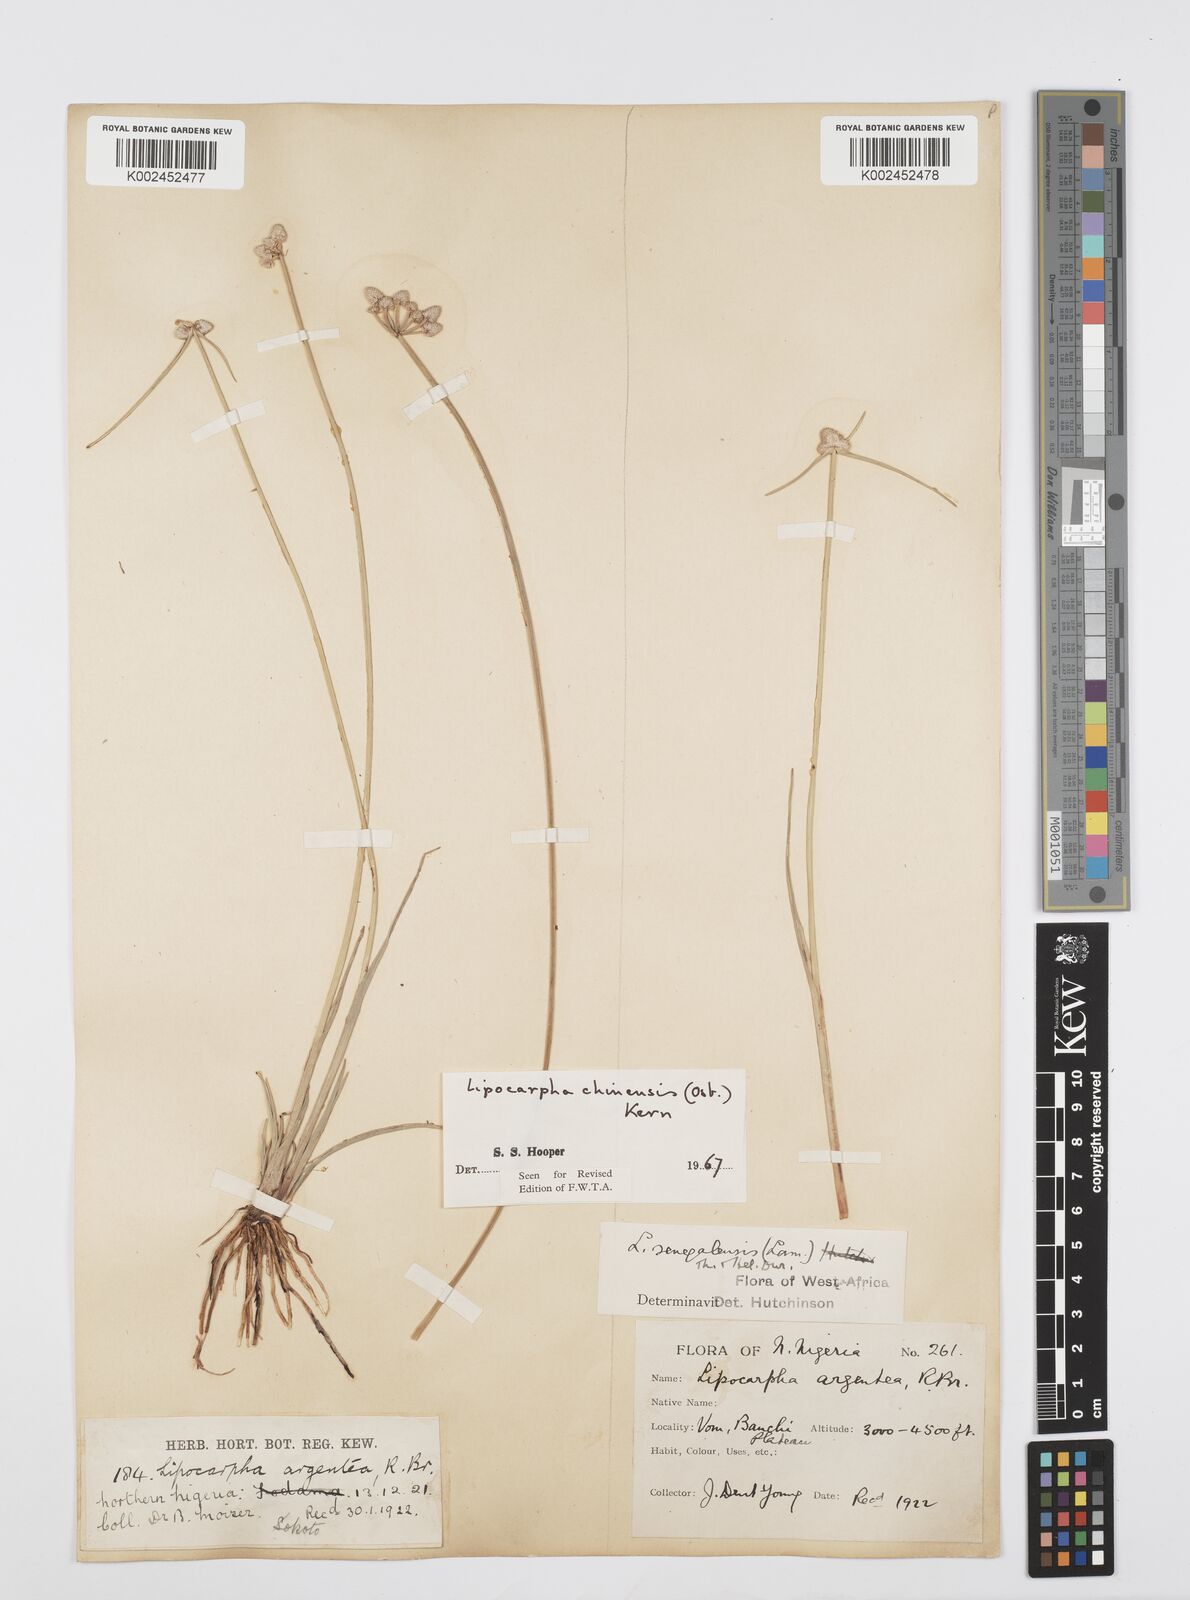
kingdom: Plantae
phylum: Tracheophyta
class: Liliopsida
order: Poales
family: Cyperaceae
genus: Cyperus
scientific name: Cyperus albescens
